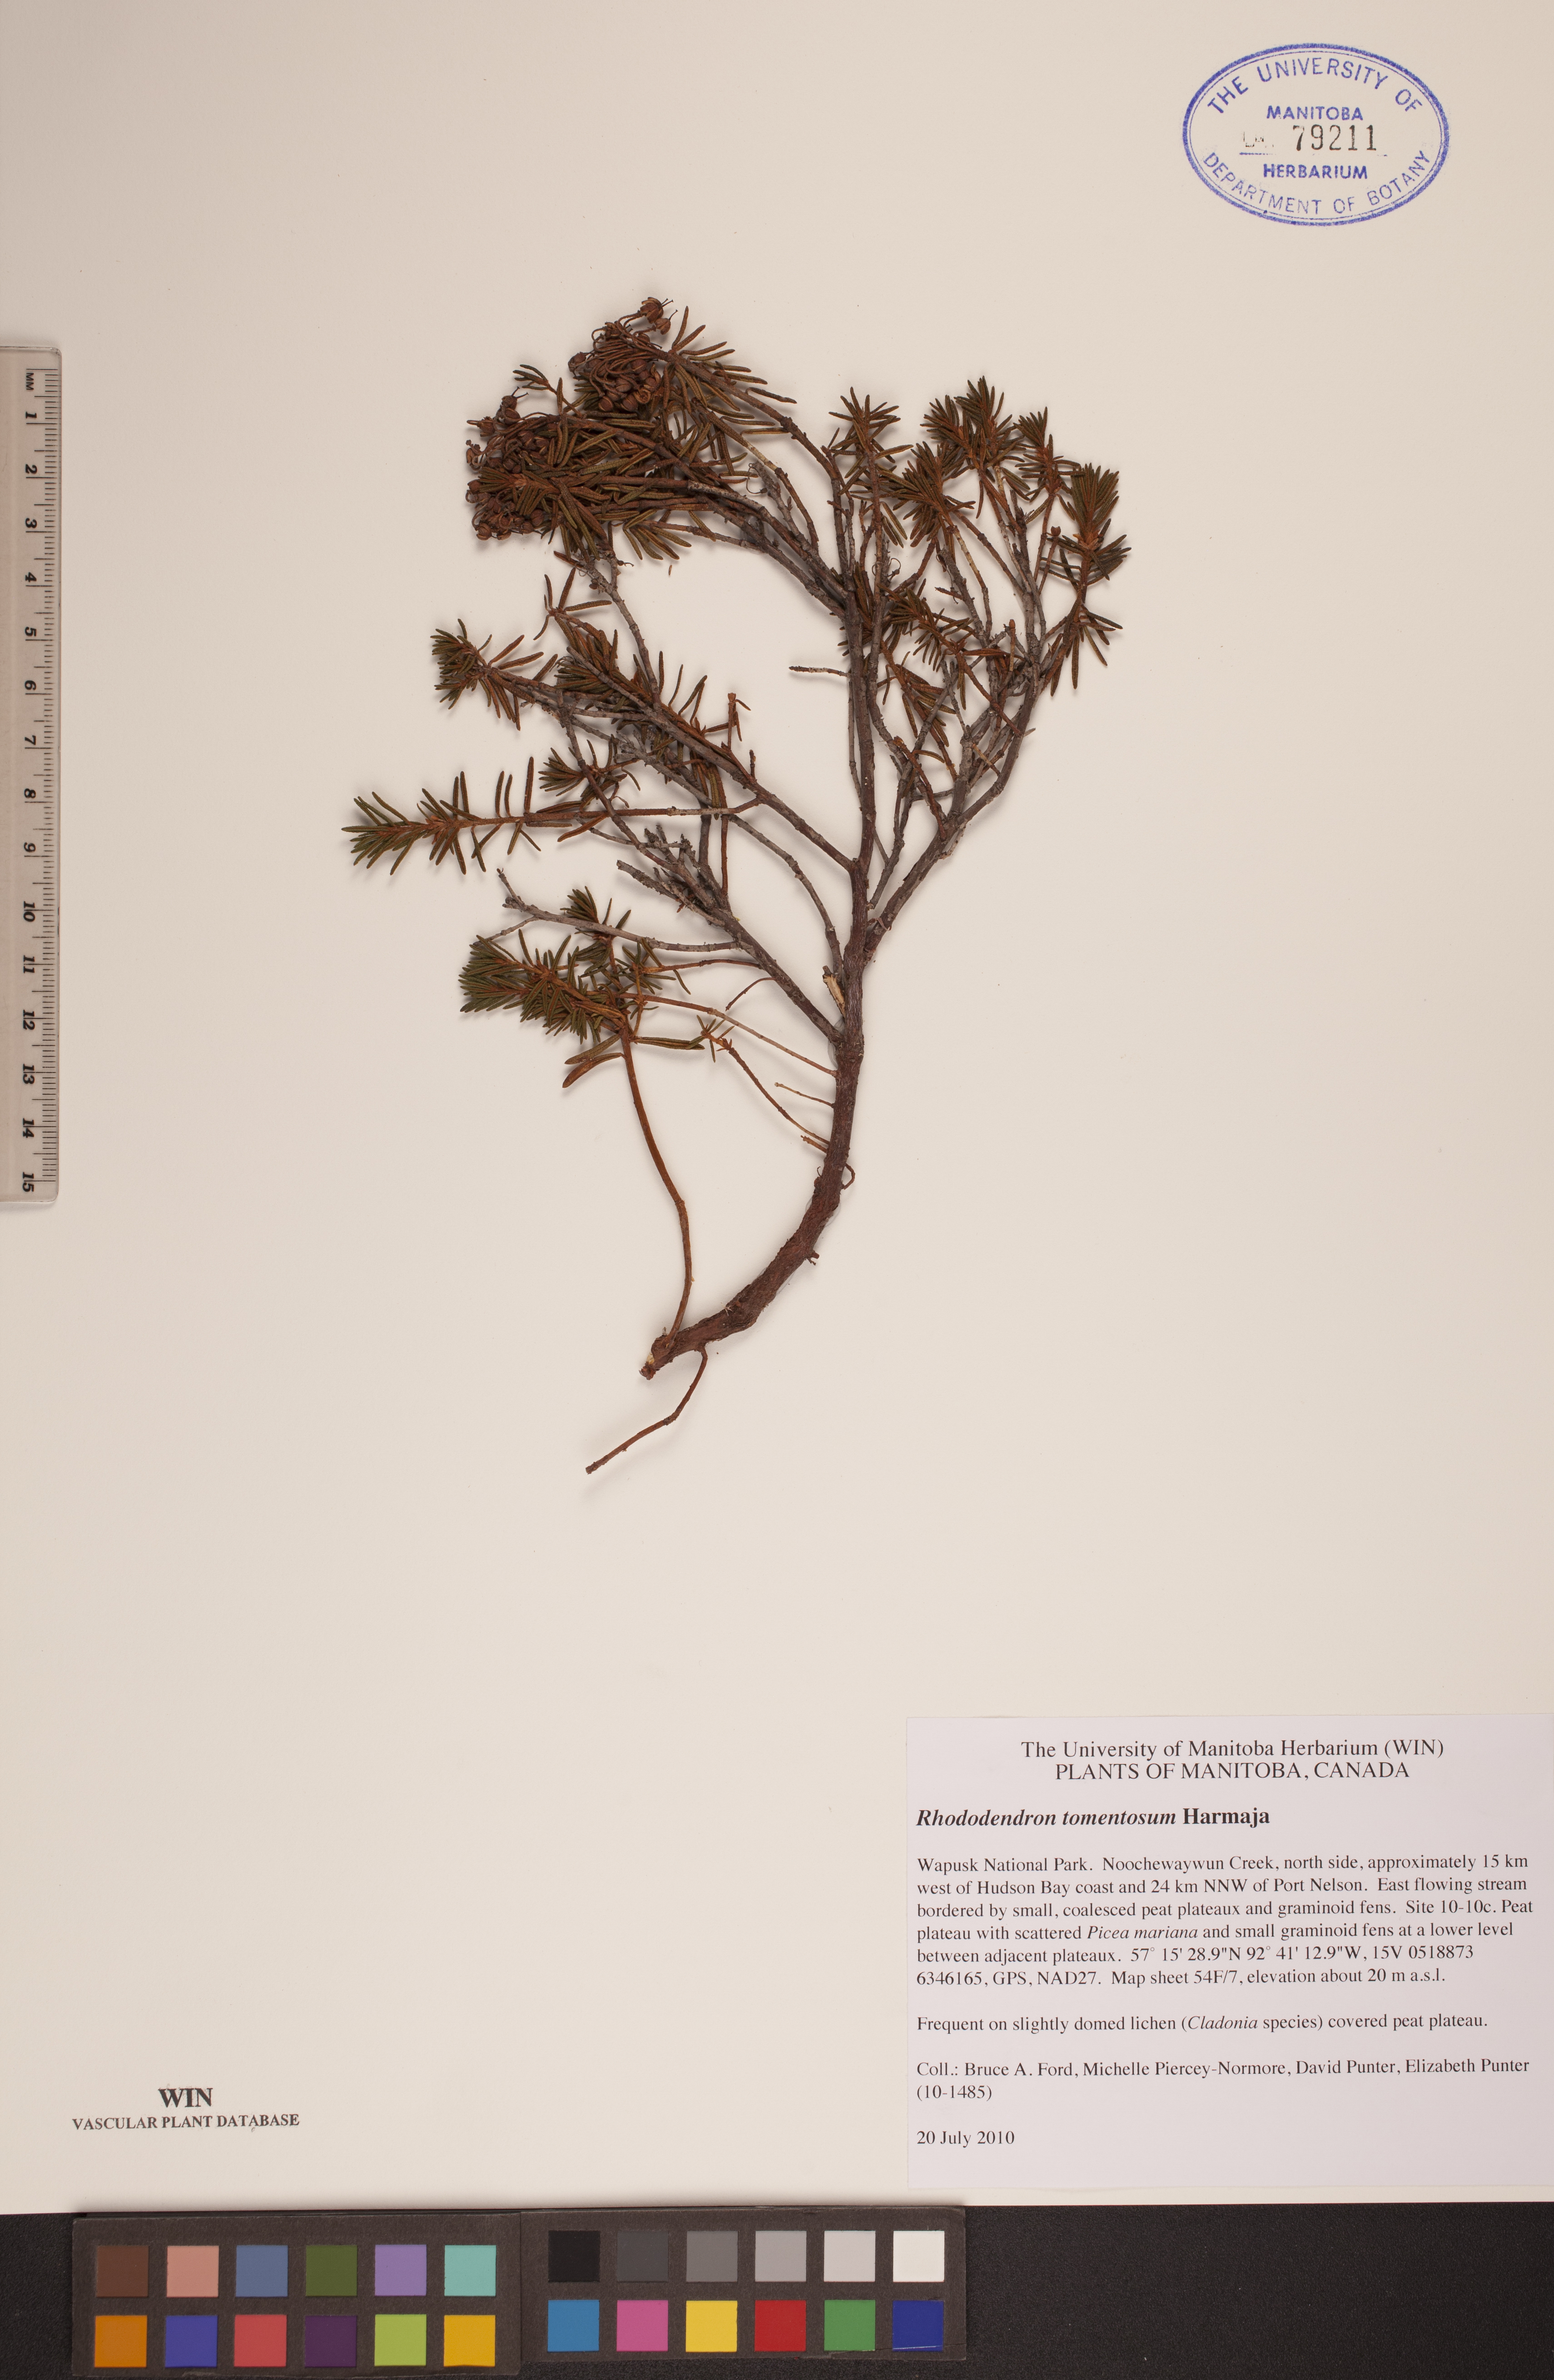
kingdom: Plantae
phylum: Tracheophyta
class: Magnoliopsida
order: Ericales
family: Ericaceae
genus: Rhododendron
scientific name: Rhododendron tomentosum
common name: Marsh labrador tea
